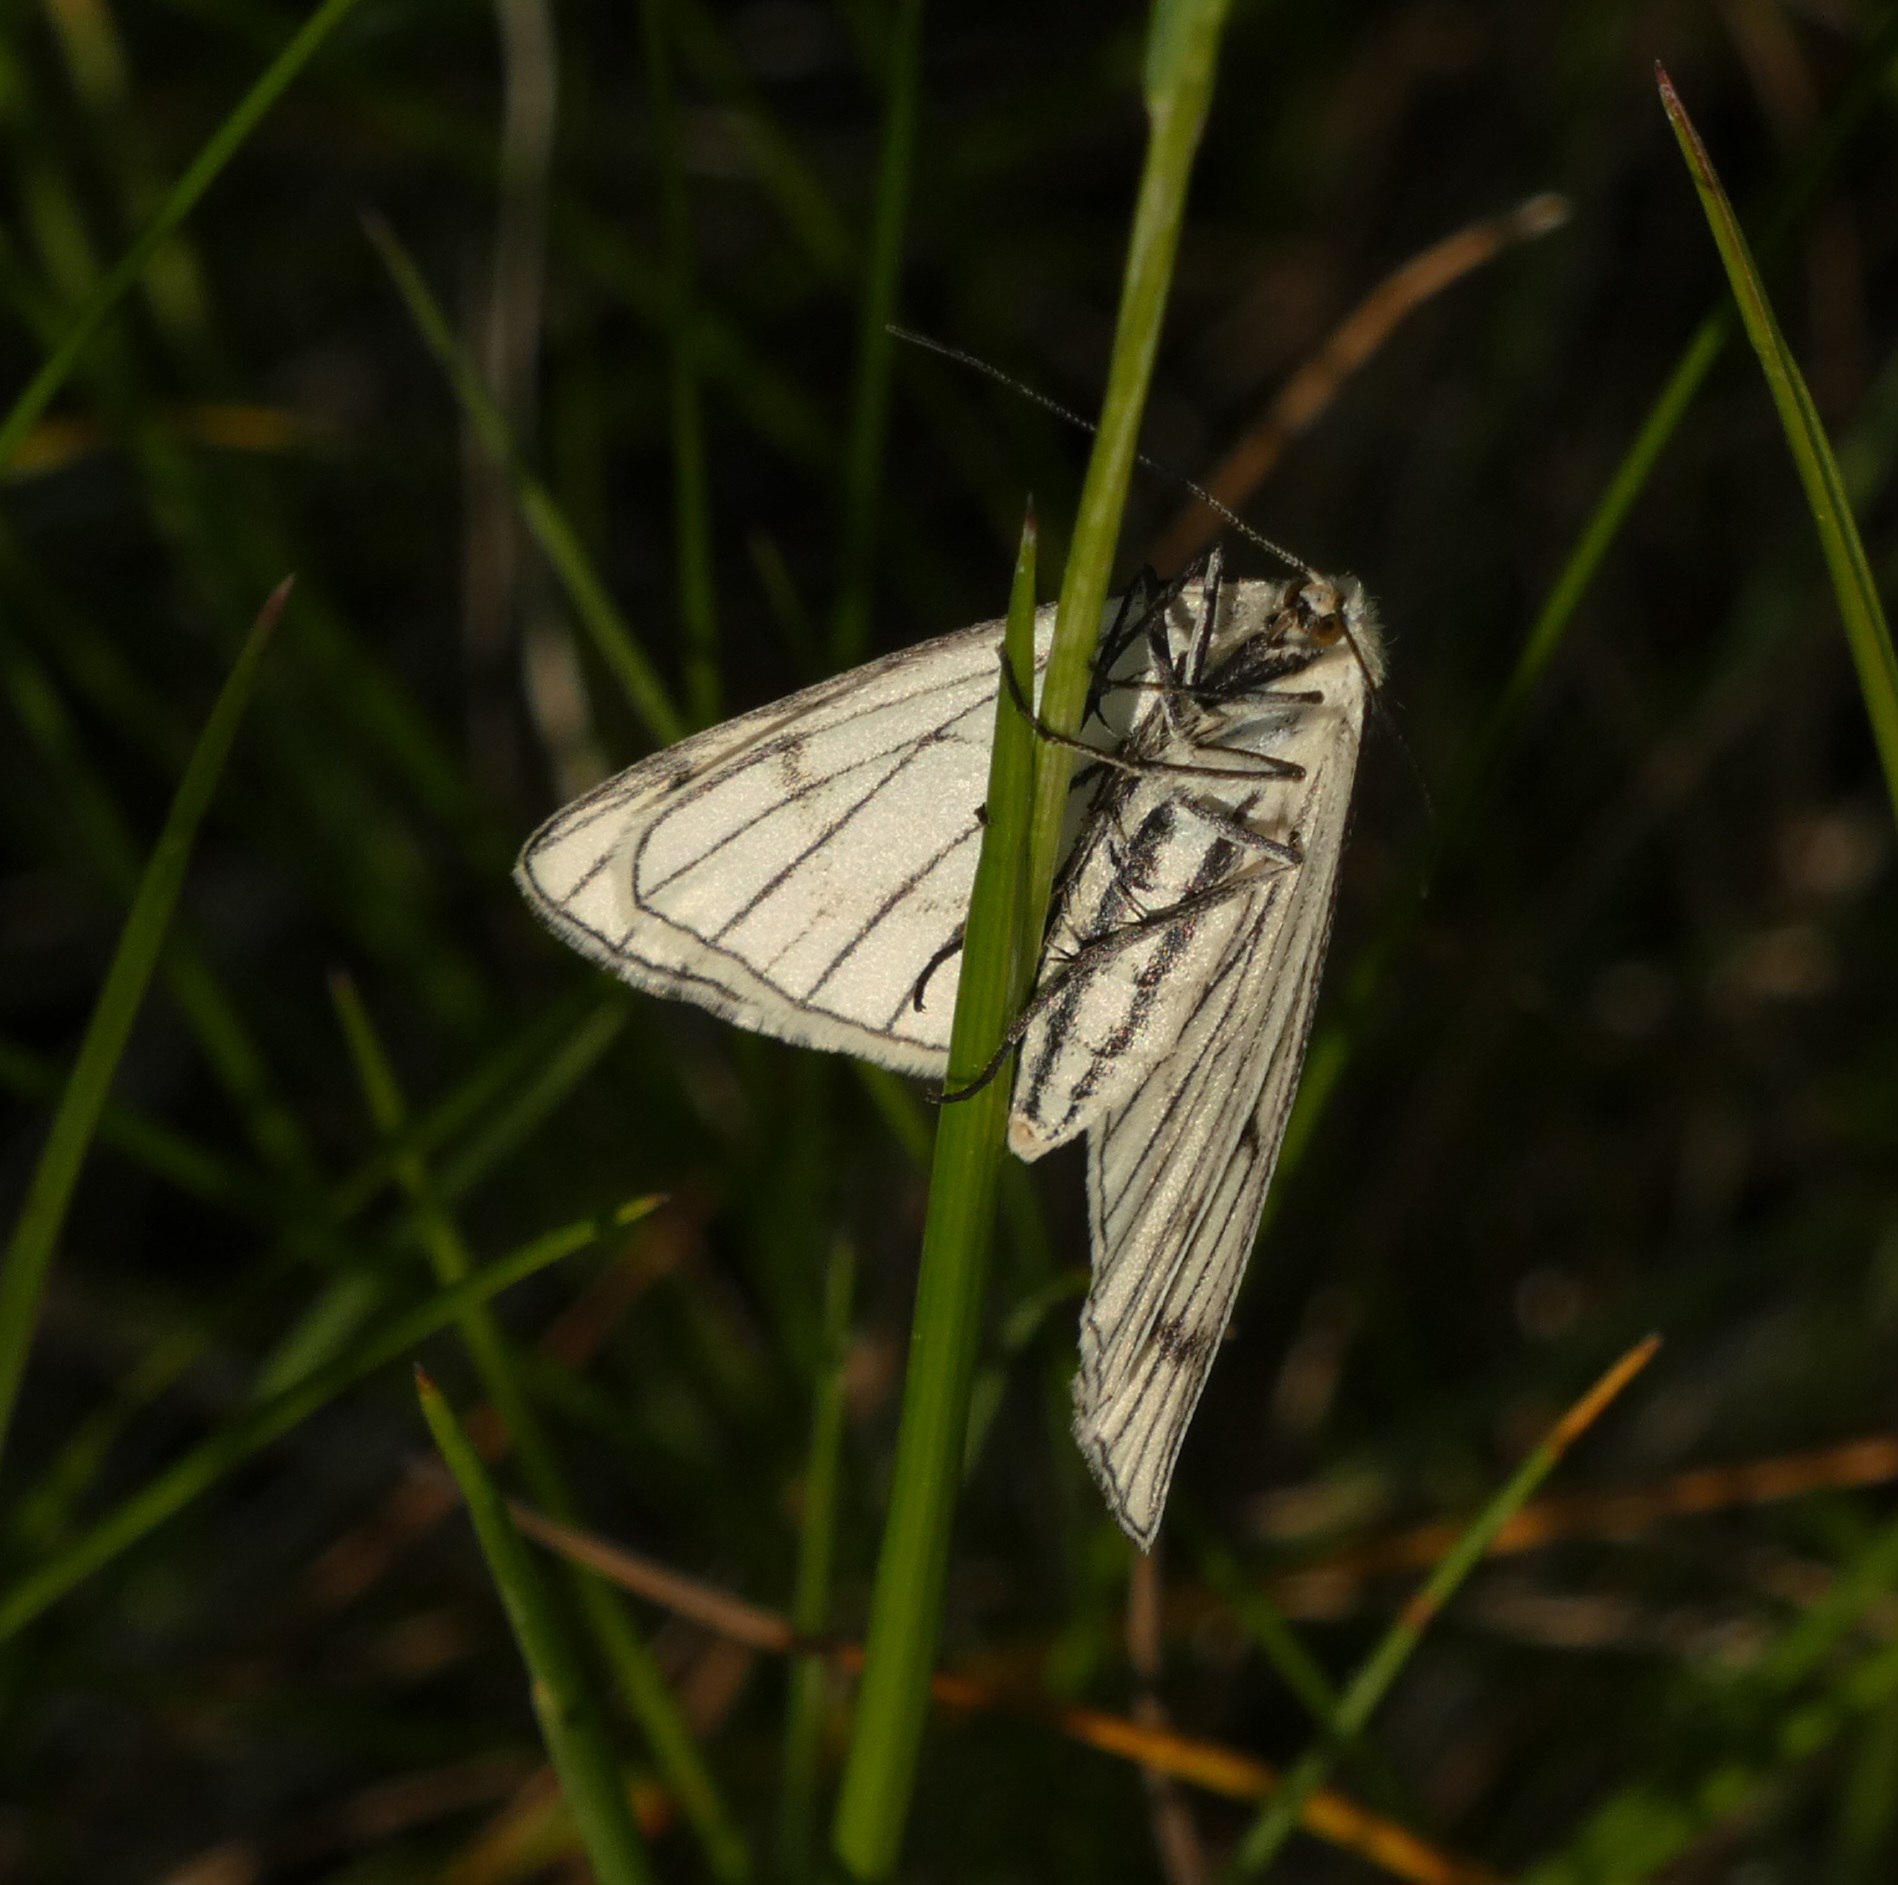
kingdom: Animalia
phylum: Arthropoda
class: Insecta
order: Lepidoptera
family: Geometridae
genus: Siona
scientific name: Siona lineata
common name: Hvidvingemåler
